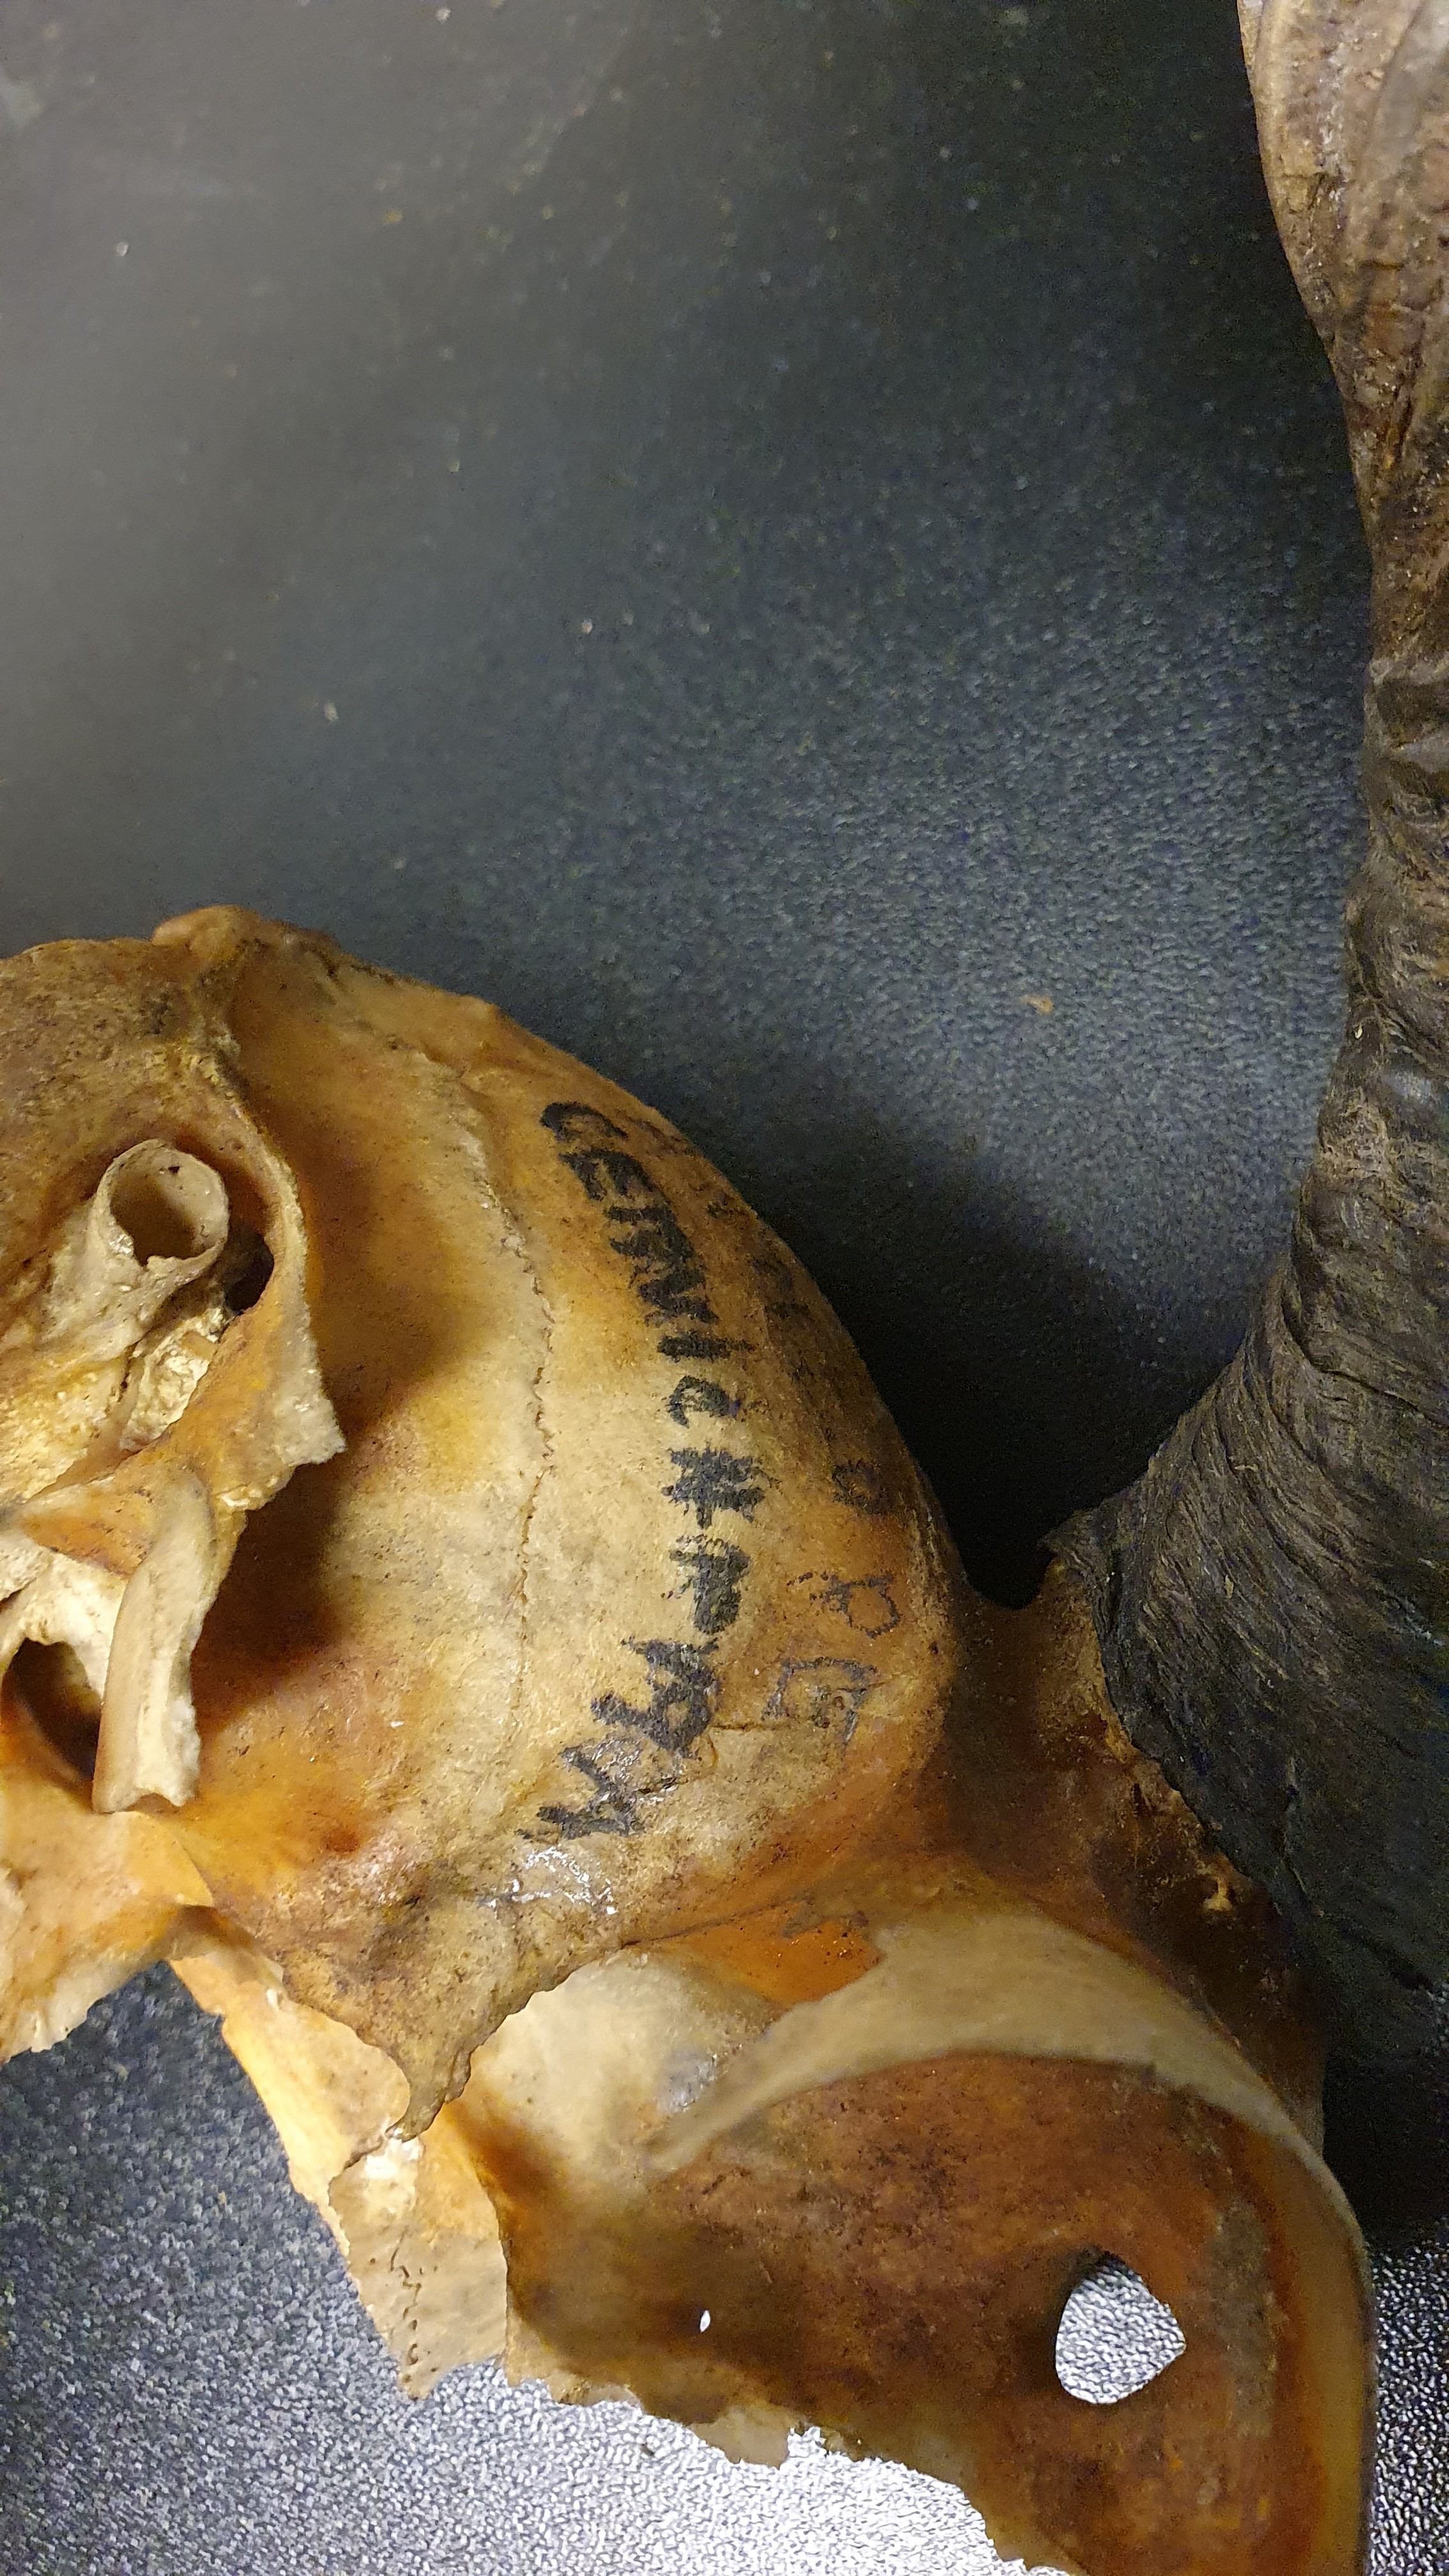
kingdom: Animalia
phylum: Chordata
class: Mammalia
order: Artiodactyla
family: Bovidae
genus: Antilope
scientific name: Antilope cervicapra
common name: Blackbuck
